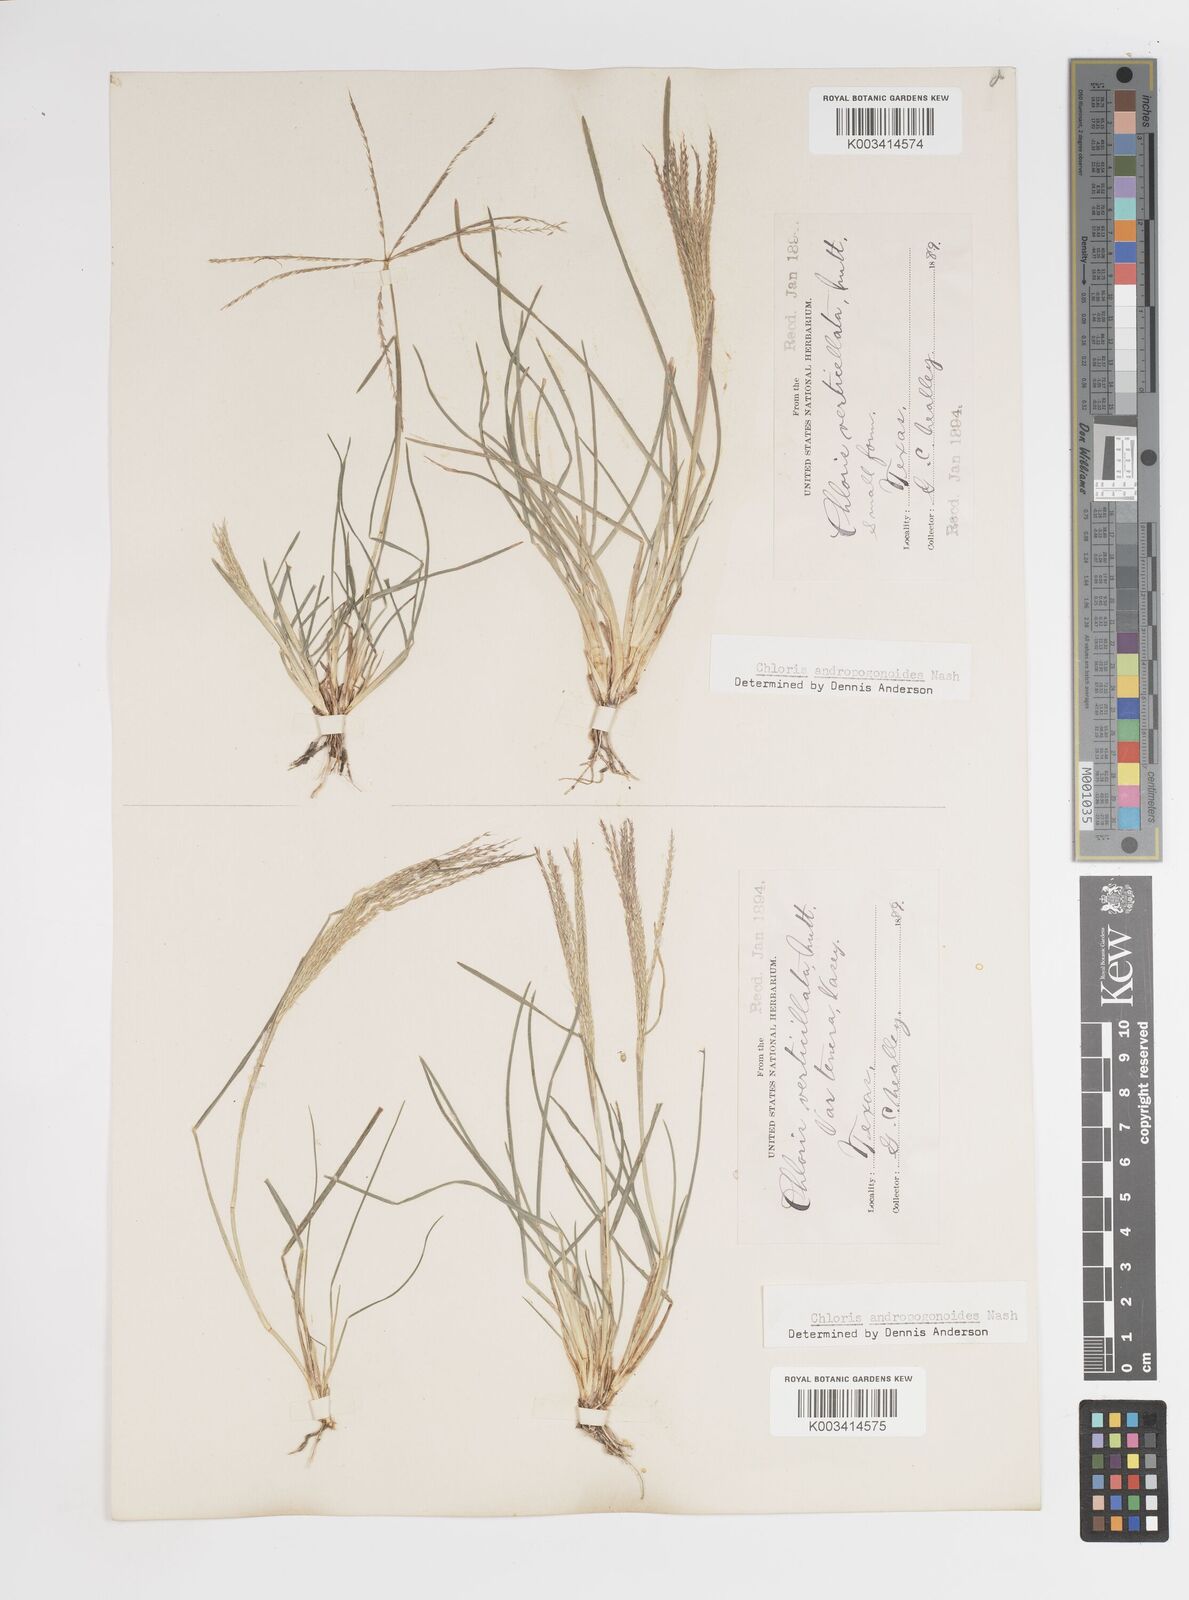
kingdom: Plantae
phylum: Tracheophyta
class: Liliopsida
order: Poales
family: Poaceae
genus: Chloris
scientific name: Chloris andropogonoides
